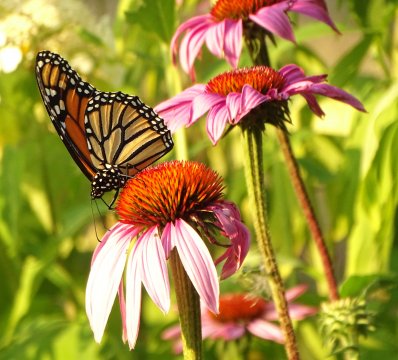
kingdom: Animalia
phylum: Arthropoda
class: Insecta
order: Lepidoptera
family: Nymphalidae
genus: Danaus
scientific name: Danaus plexippus
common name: Monarch
